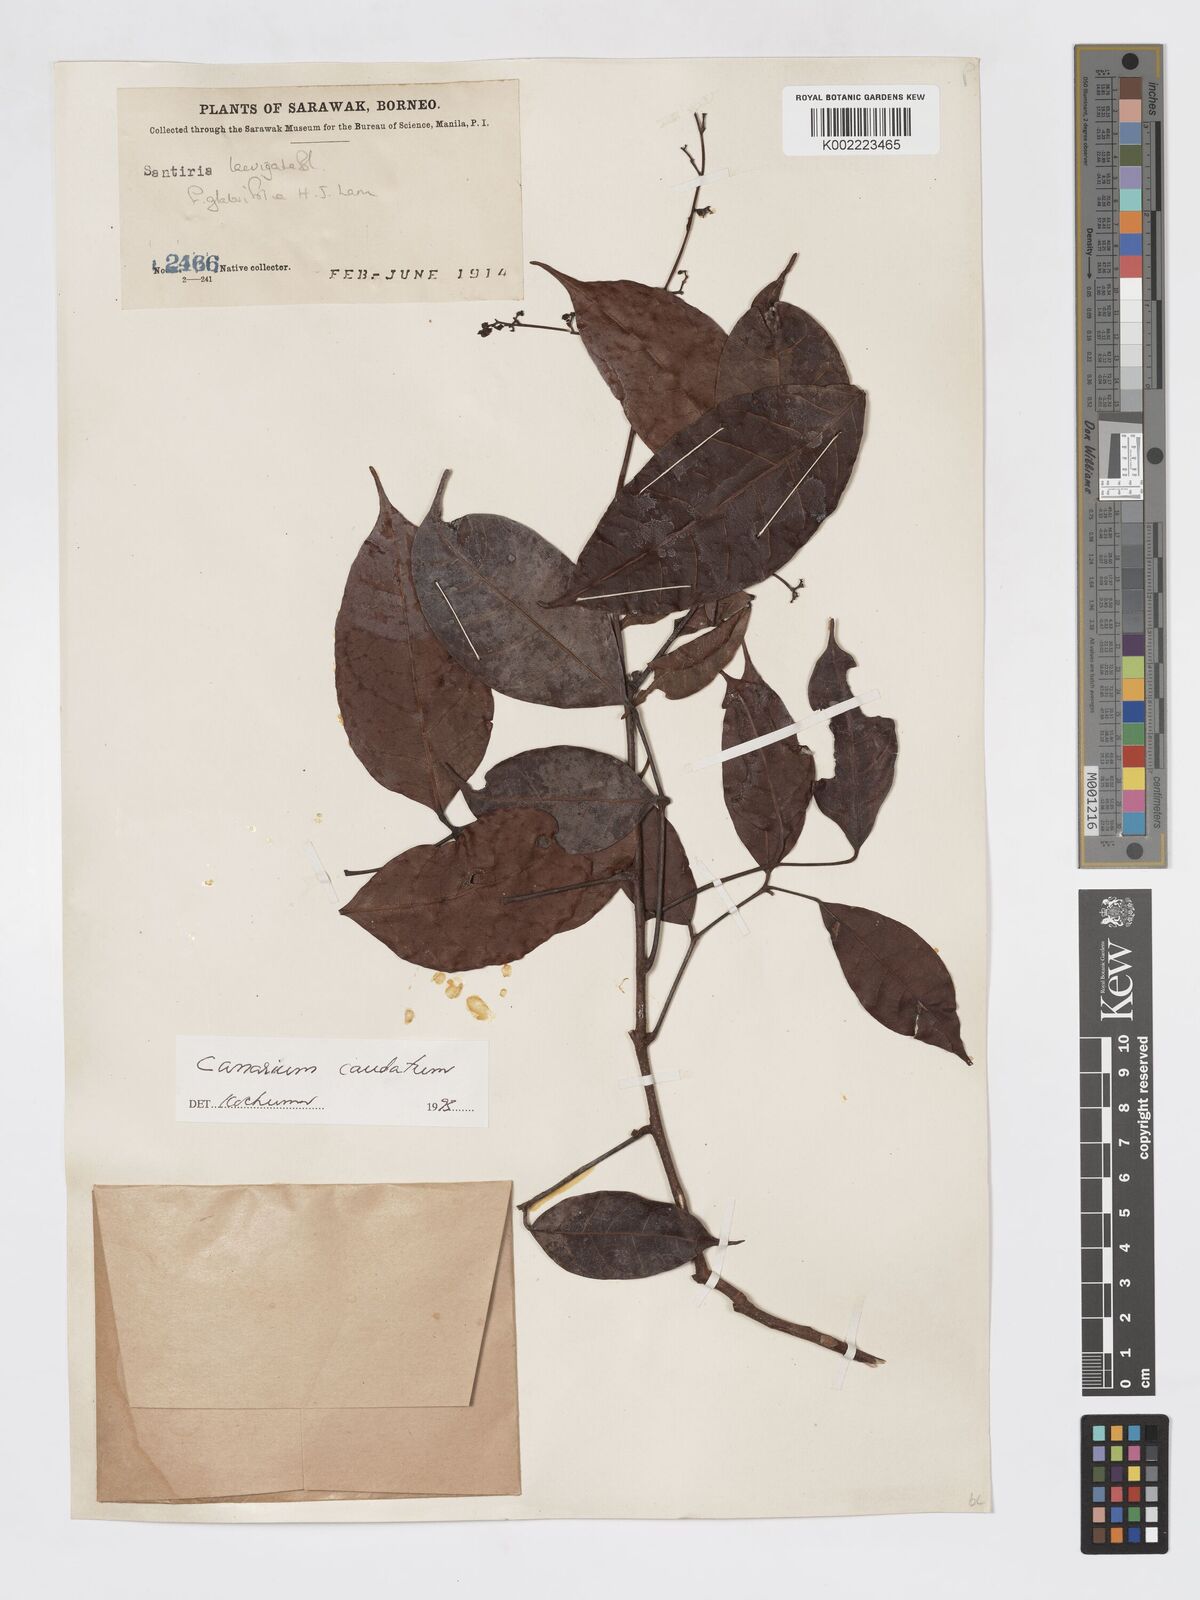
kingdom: Plantae
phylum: Tracheophyta
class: Magnoliopsida
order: Sapindales
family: Burseraceae
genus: Canarium
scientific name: Canarium caudatum
